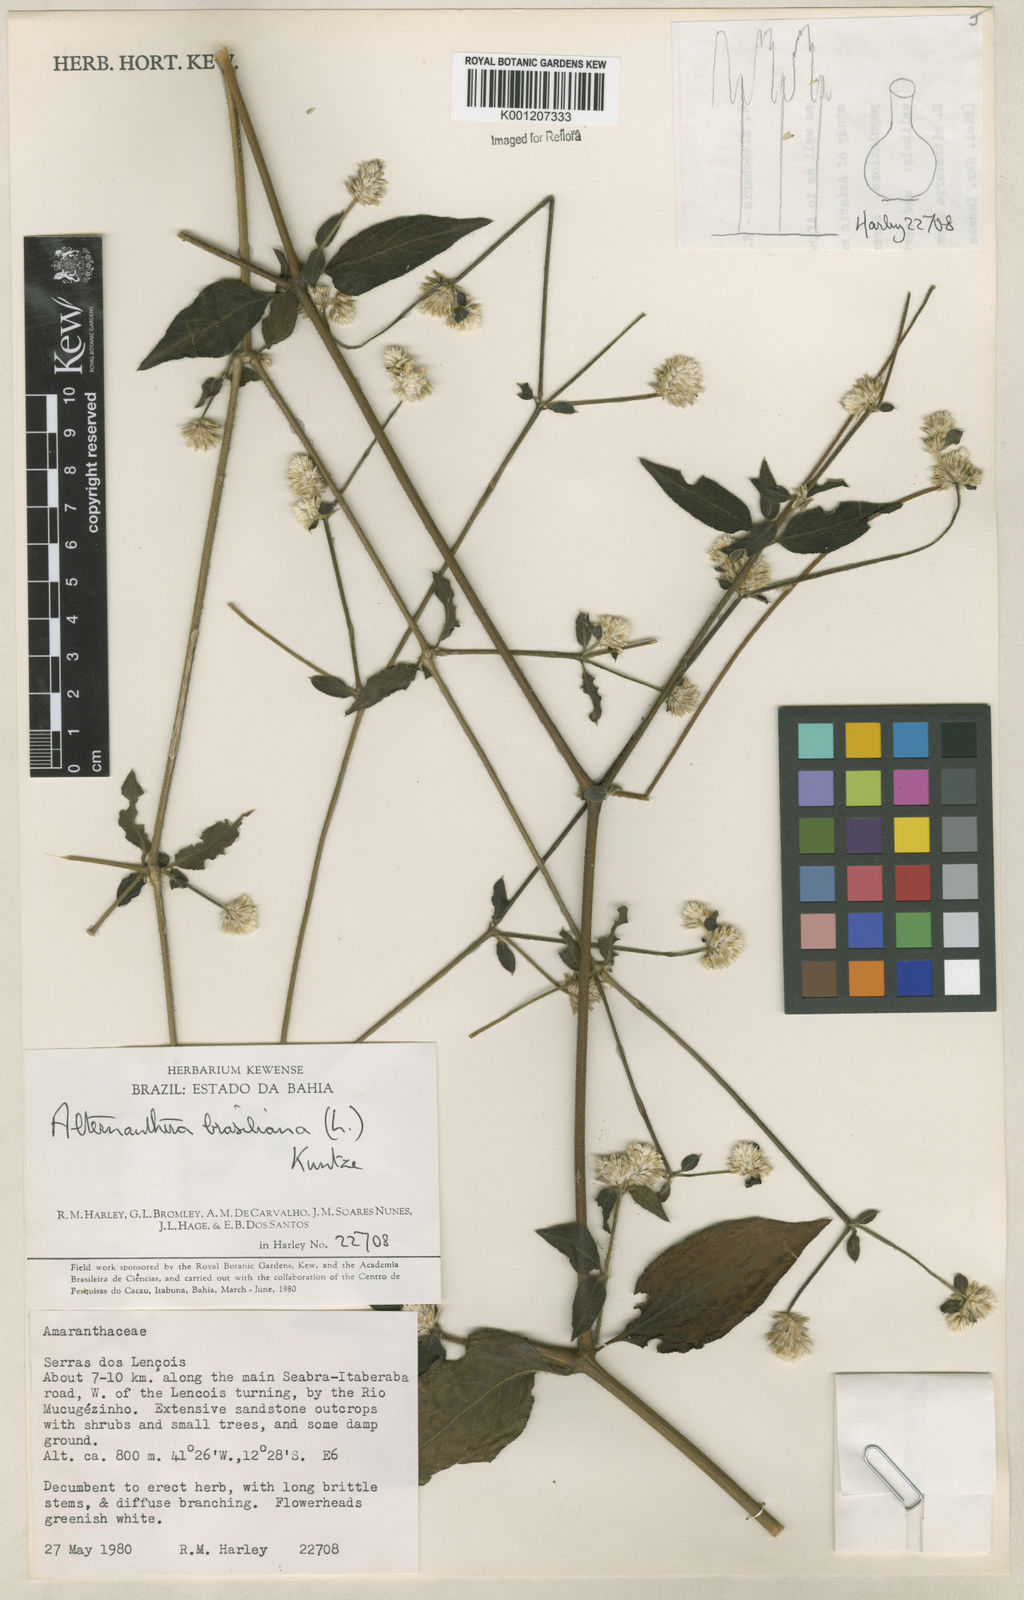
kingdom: Plantae
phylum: Tracheophyta
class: Magnoliopsida
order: Caryophyllales
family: Amaranthaceae
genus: Alternanthera
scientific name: Alternanthera brasiliana
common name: Brazilian joyweed
